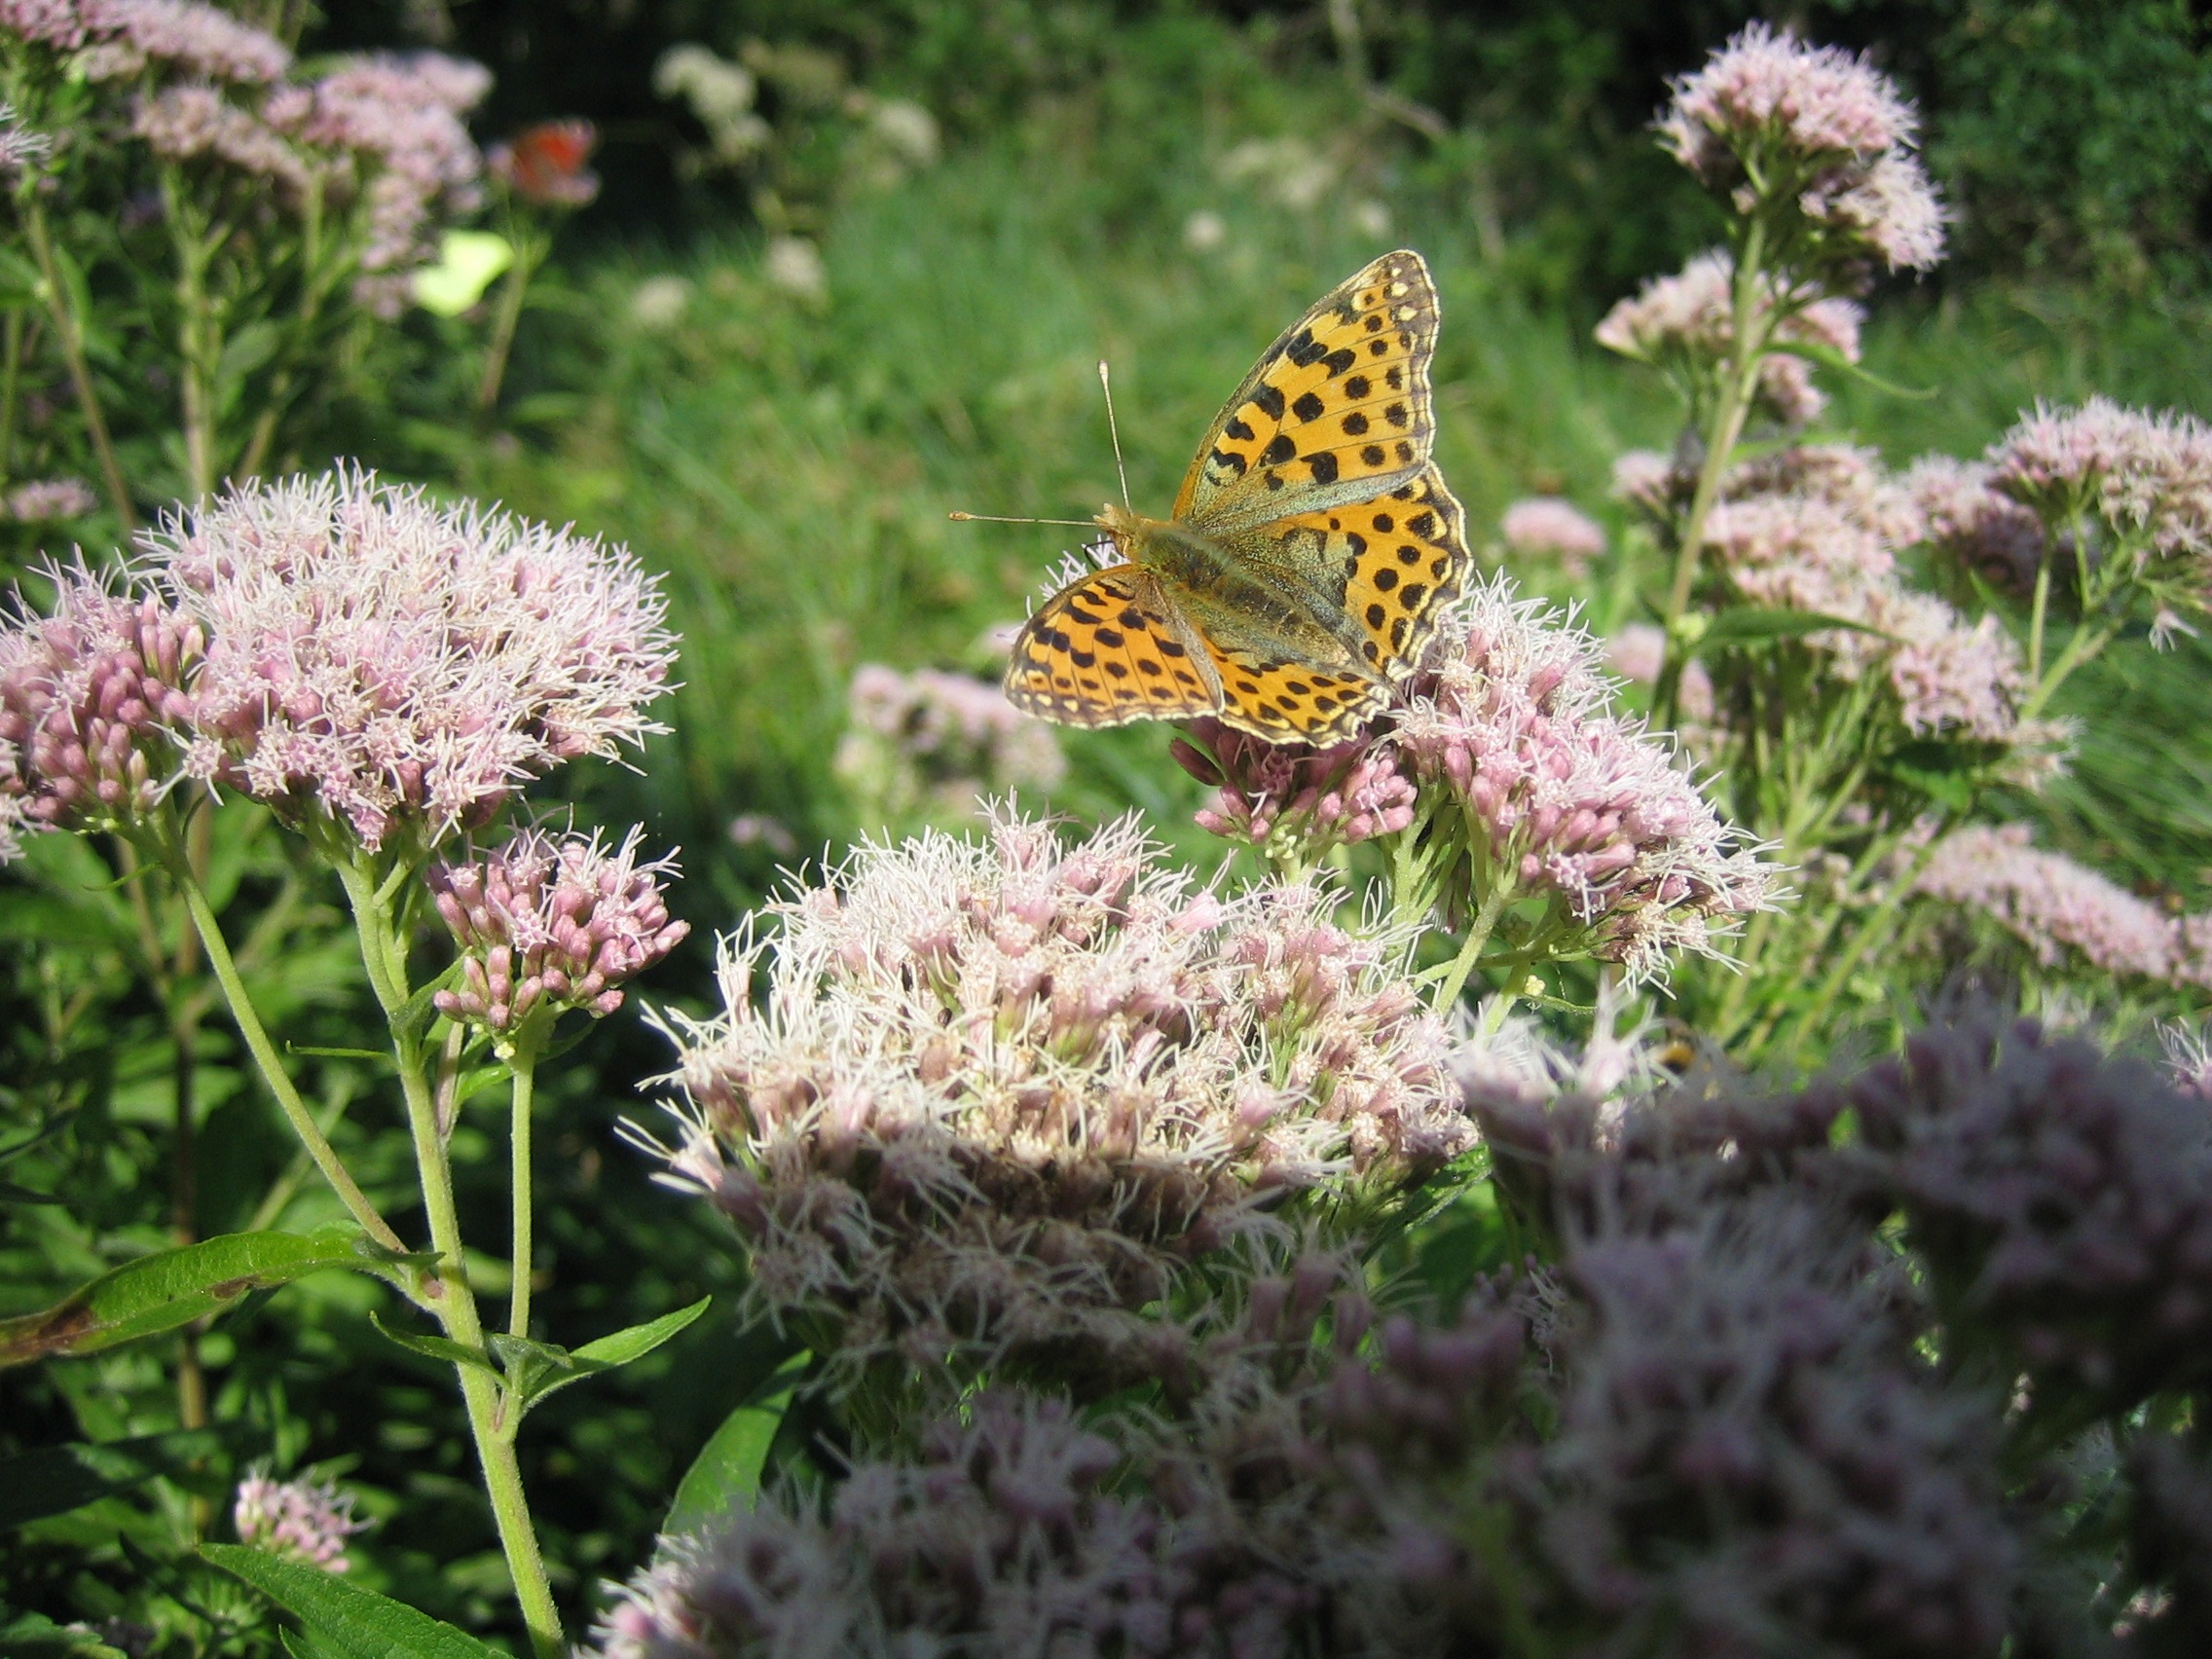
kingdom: Animalia
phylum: Arthropoda
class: Insecta
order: Lepidoptera
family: Nymphalidae
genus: Issoria
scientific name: Issoria lathonia
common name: Storplettet perlemorsommerfugl
